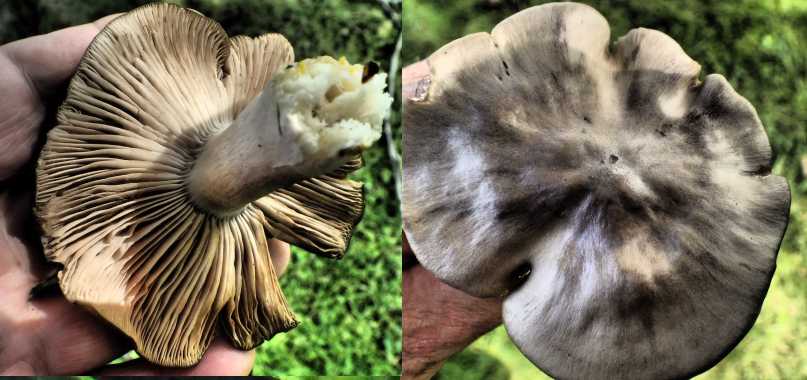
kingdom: Fungi
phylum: Basidiomycota
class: Agaricomycetes
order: Agaricales
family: Entolomataceae
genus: Entoloma
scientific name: Entoloma
